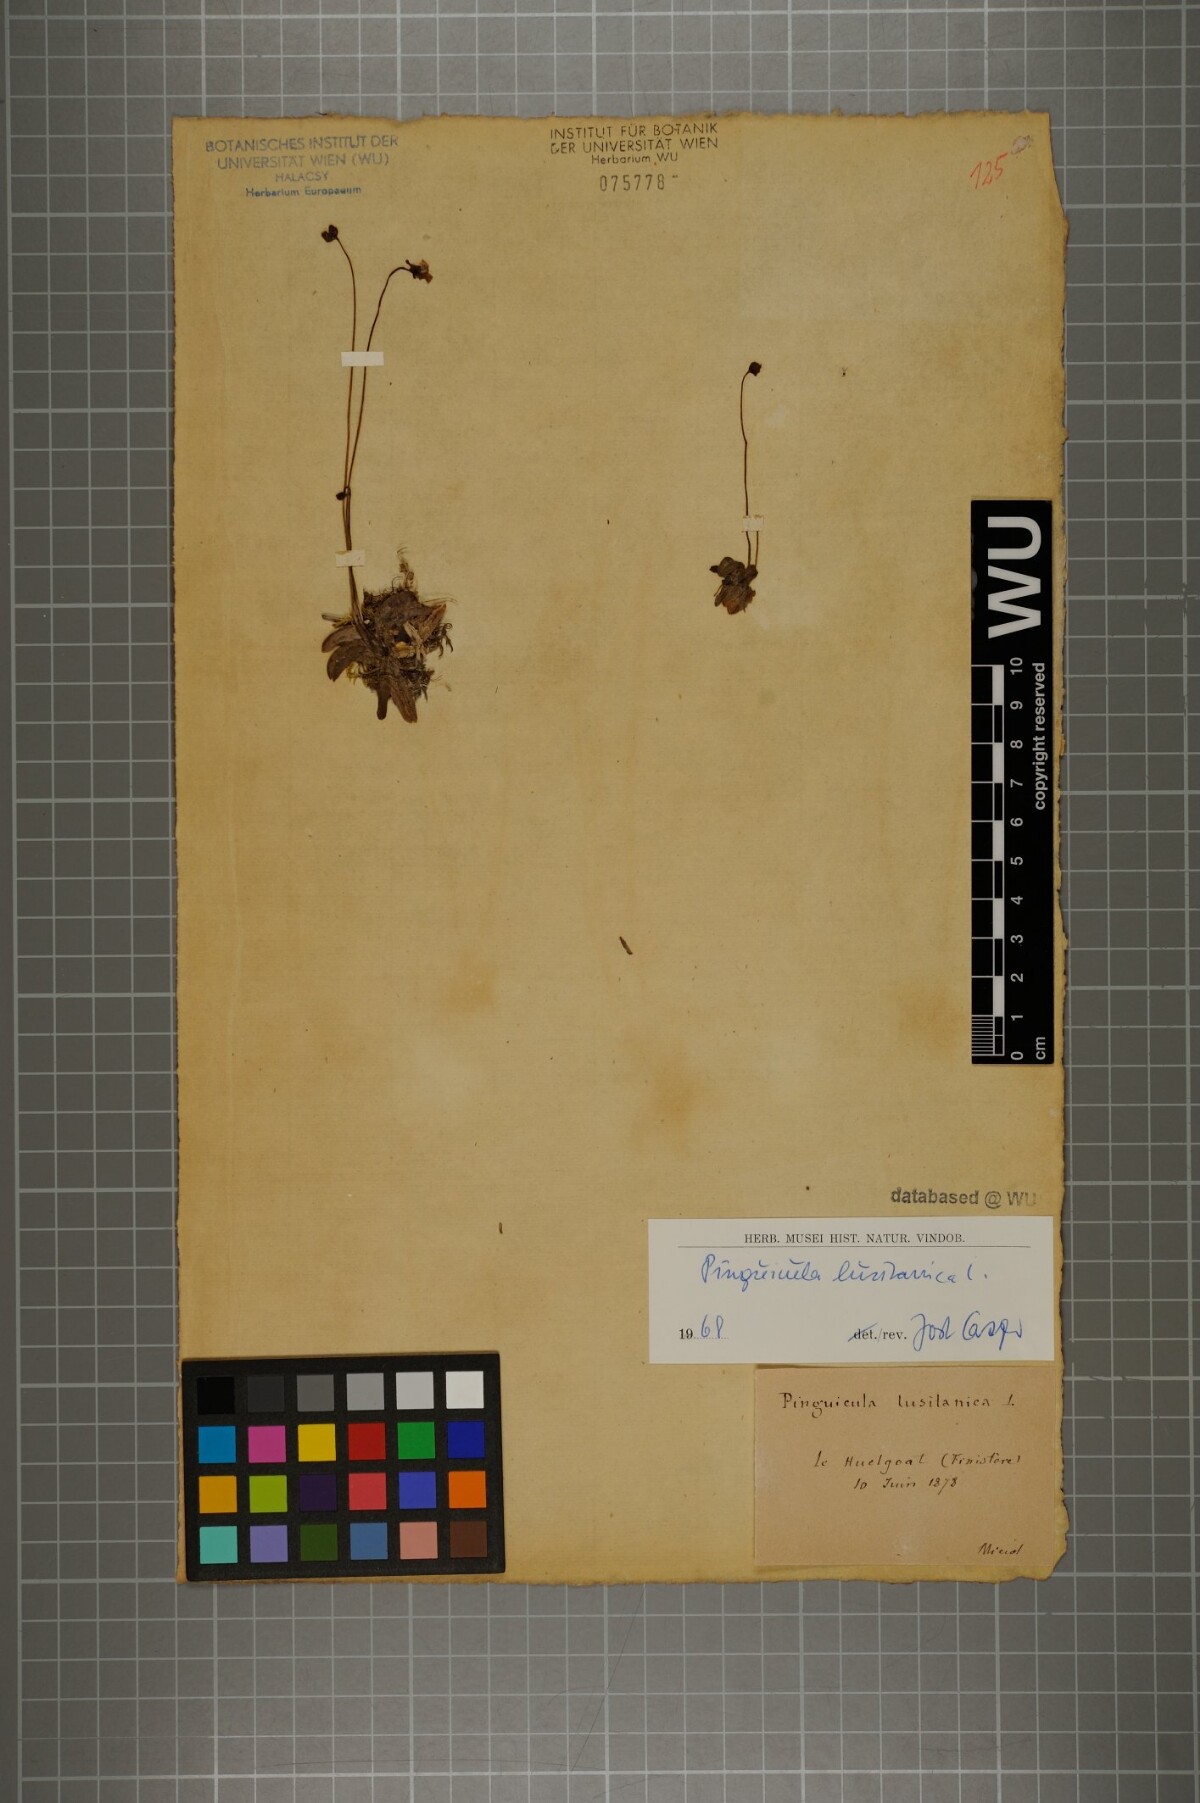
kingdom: Plantae
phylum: Tracheophyta
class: Magnoliopsida
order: Lamiales
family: Lentibulariaceae
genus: Pinguicula
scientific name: Pinguicula lusitanica
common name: Pale butterwort
